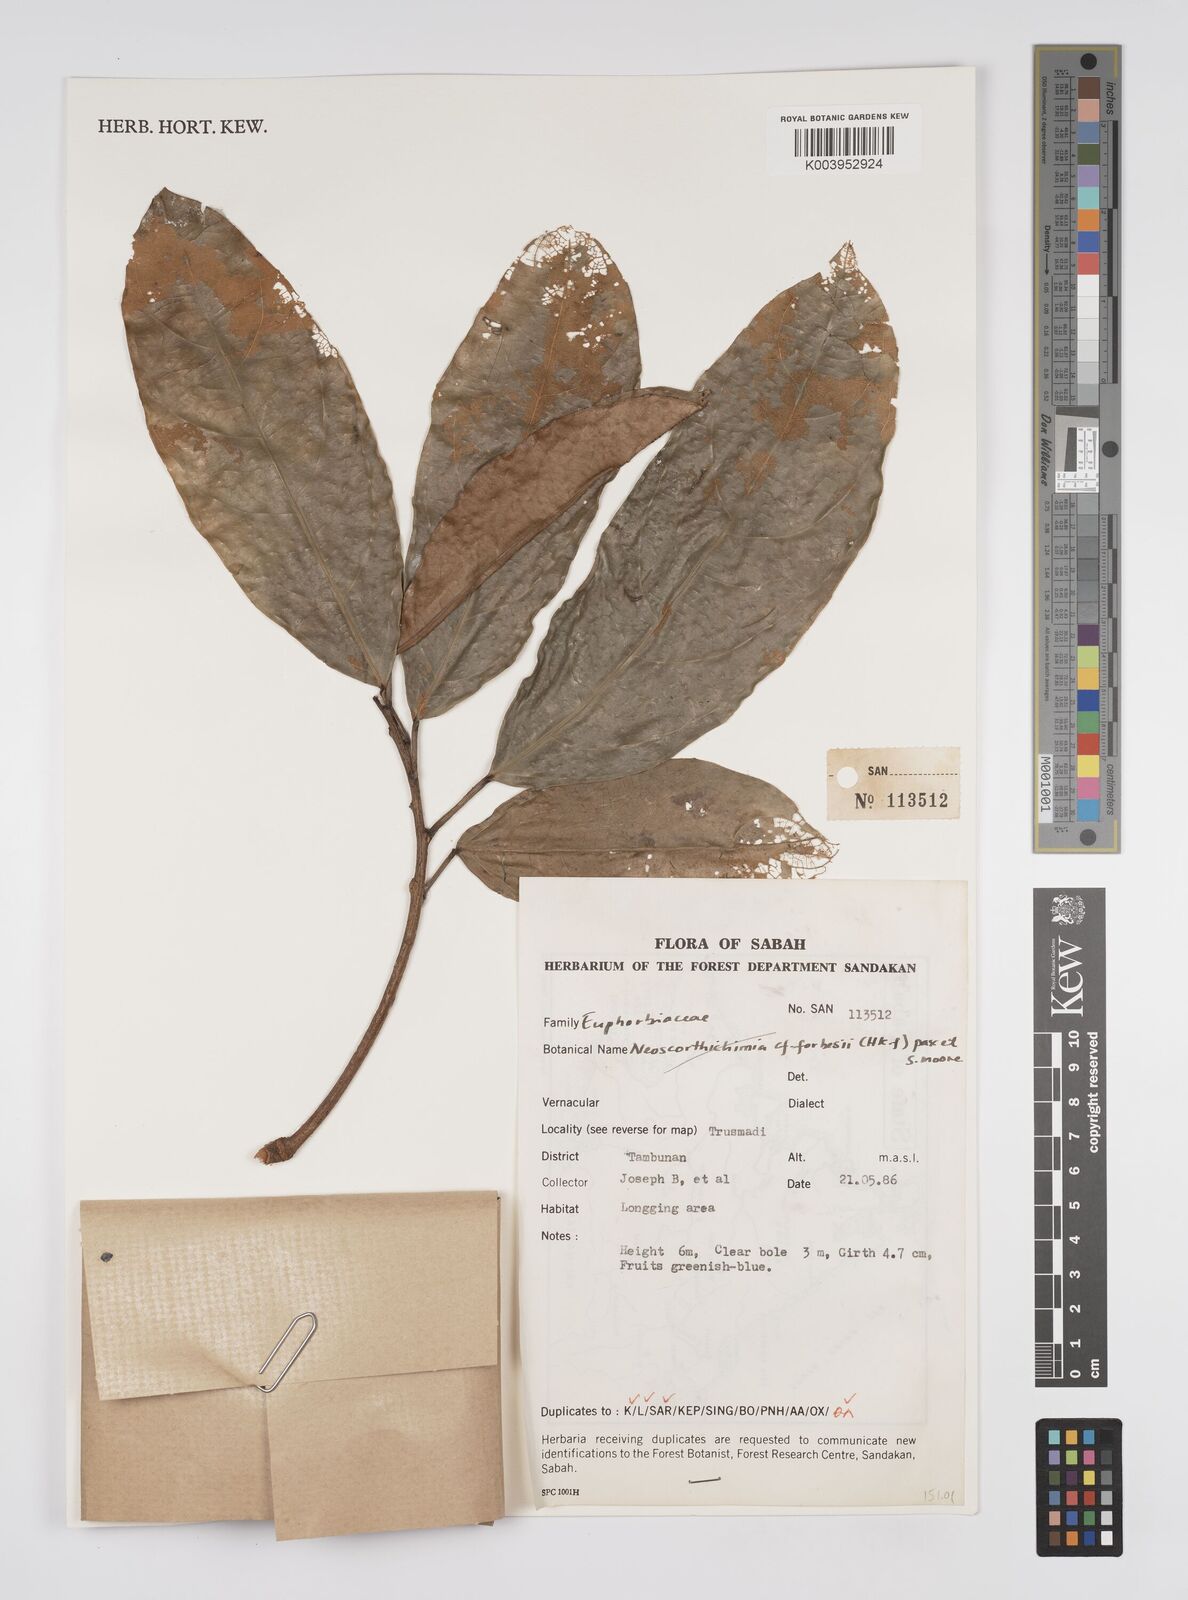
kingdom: Plantae
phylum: Tracheophyta
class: Magnoliopsida
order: Malpighiales
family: Euphorbiaceae
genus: Neoscortechinia
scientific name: Neoscortechinia philippinensis
